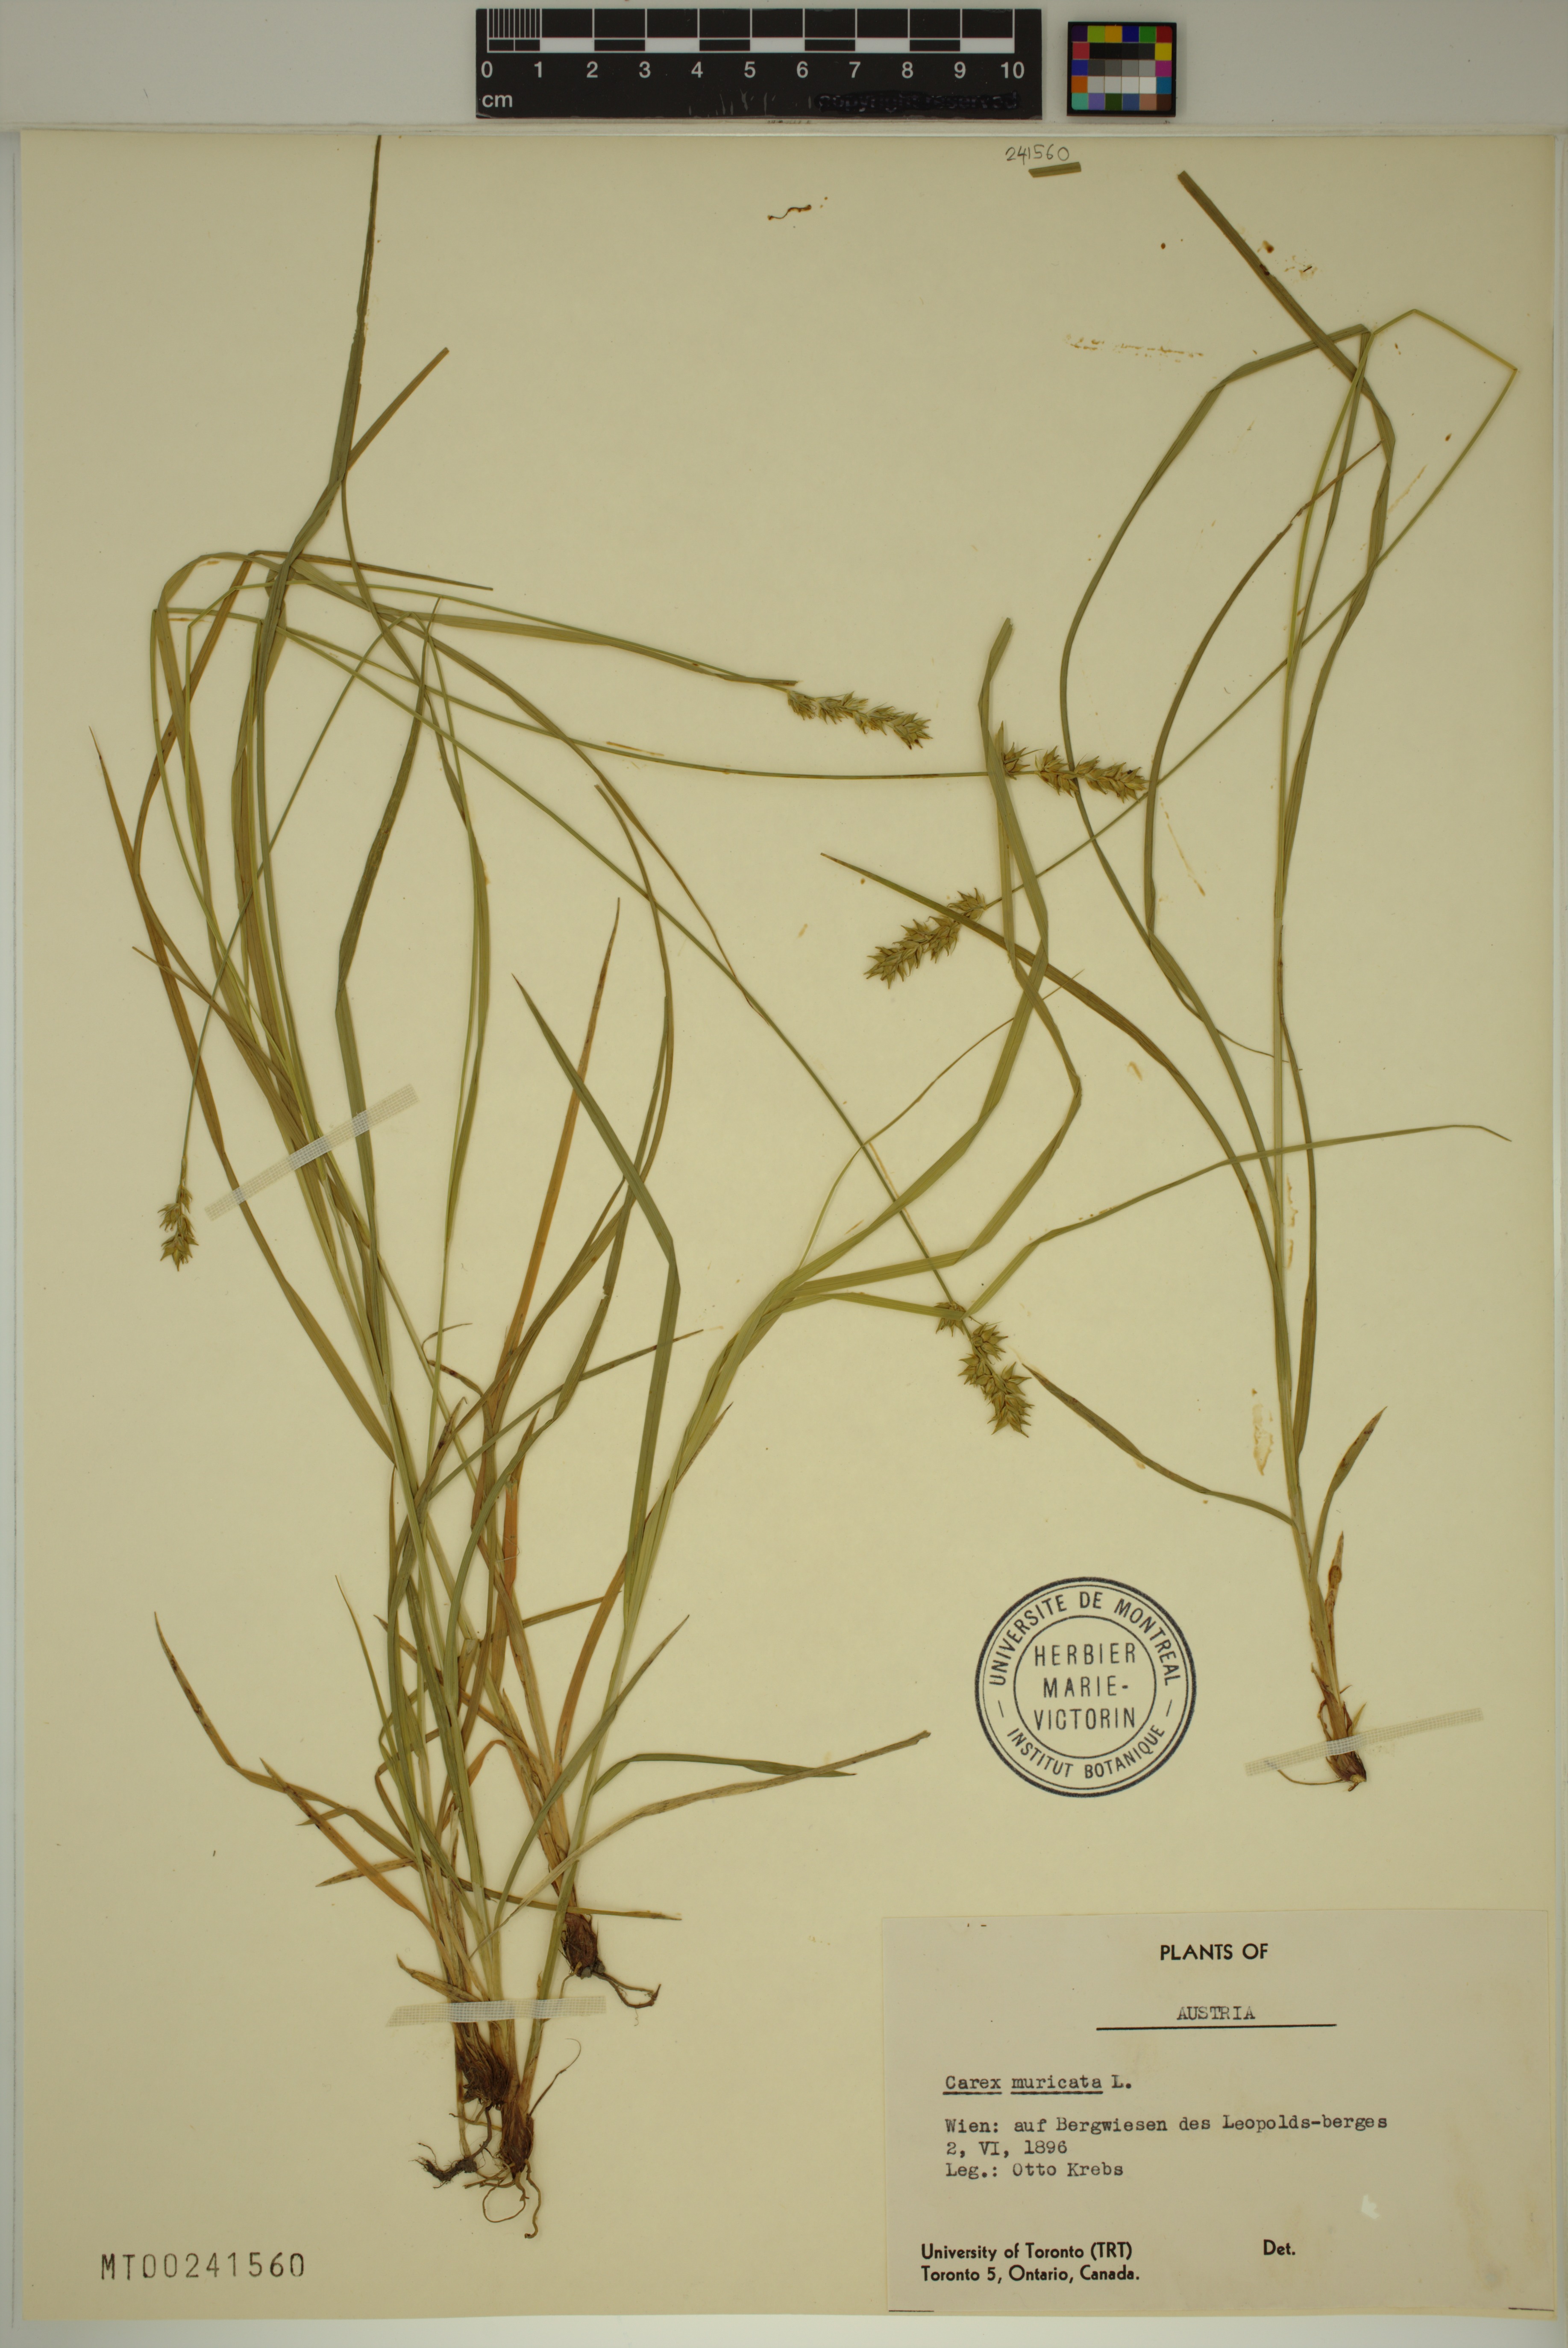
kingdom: Plantae
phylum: Tracheophyta
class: Liliopsida
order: Poales
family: Cyperaceae
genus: Carex
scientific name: Carex muricata
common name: Rough sedge
